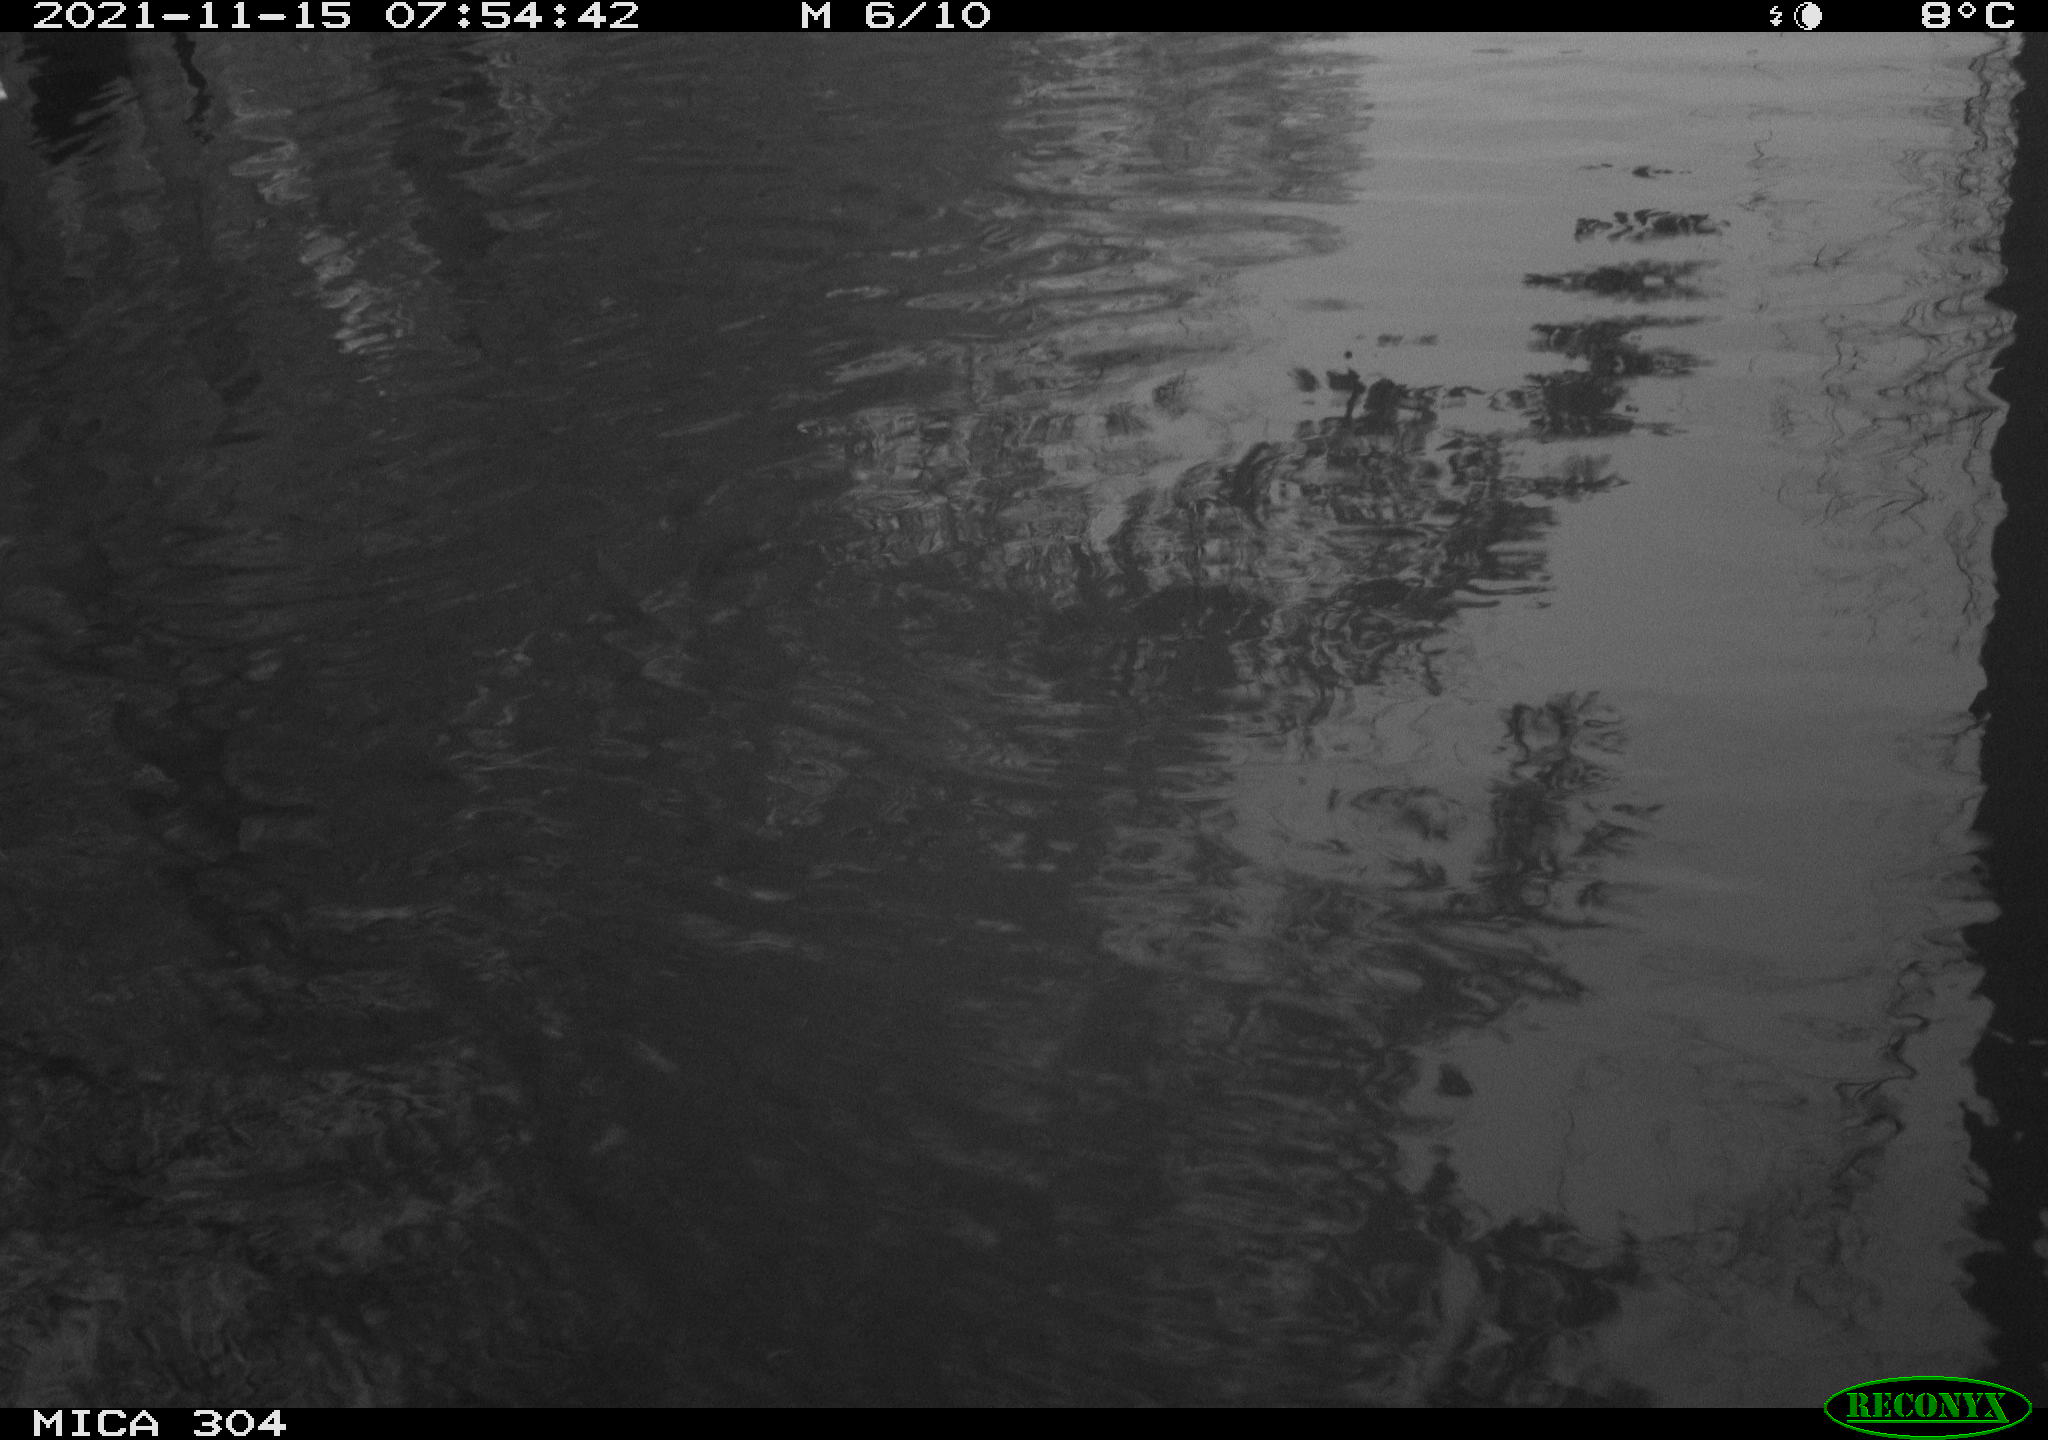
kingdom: Animalia
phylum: Chordata
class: Aves
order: Gruiformes
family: Rallidae
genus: Fulica
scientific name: Fulica atra
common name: Eurasian coot
